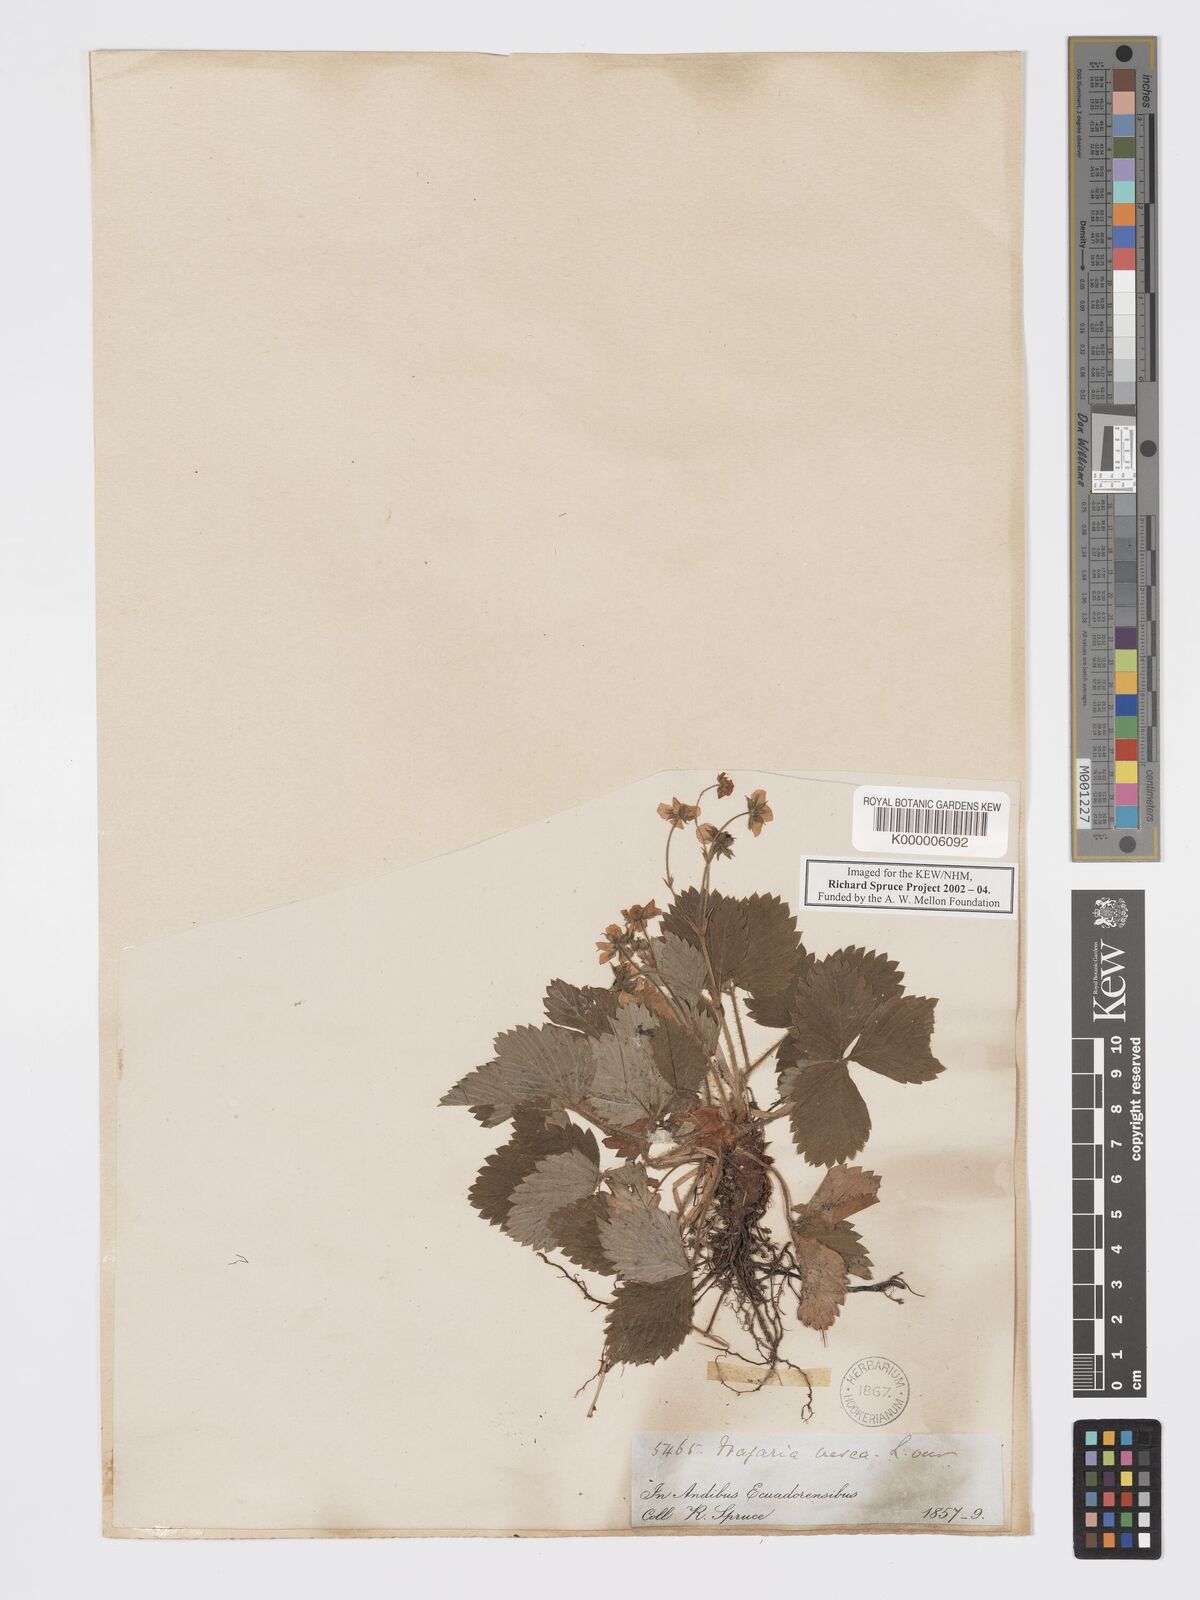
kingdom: Plantae
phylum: Tracheophyta
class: Magnoliopsida
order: Rosales
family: Rosaceae
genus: Fragaria
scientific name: Fragaria vesca
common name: Wild strawberry
